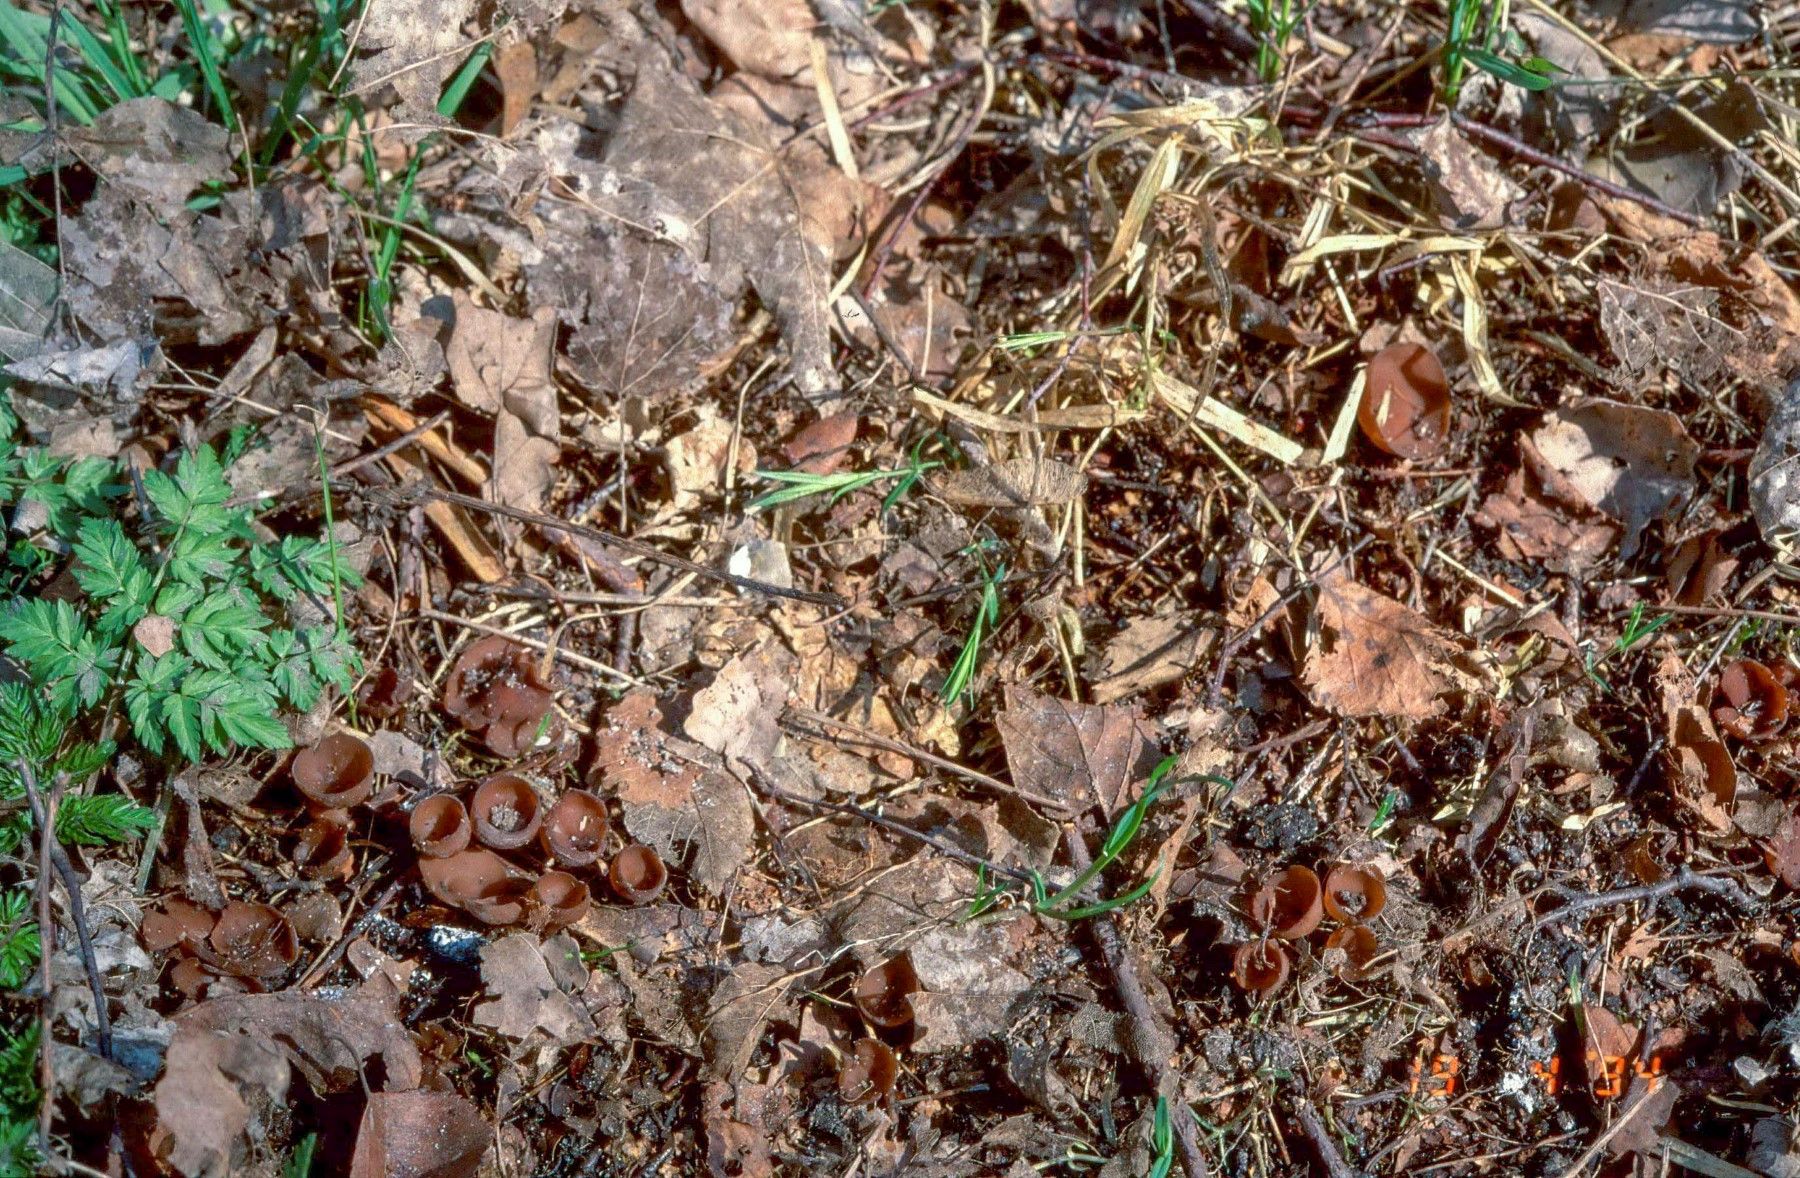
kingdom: Fungi
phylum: Ascomycota
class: Leotiomycetes
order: Helotiales
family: Sclerotiniaceae
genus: Dumontinia
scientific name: Dumontinia tuberosa
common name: anemone-knoldskive
